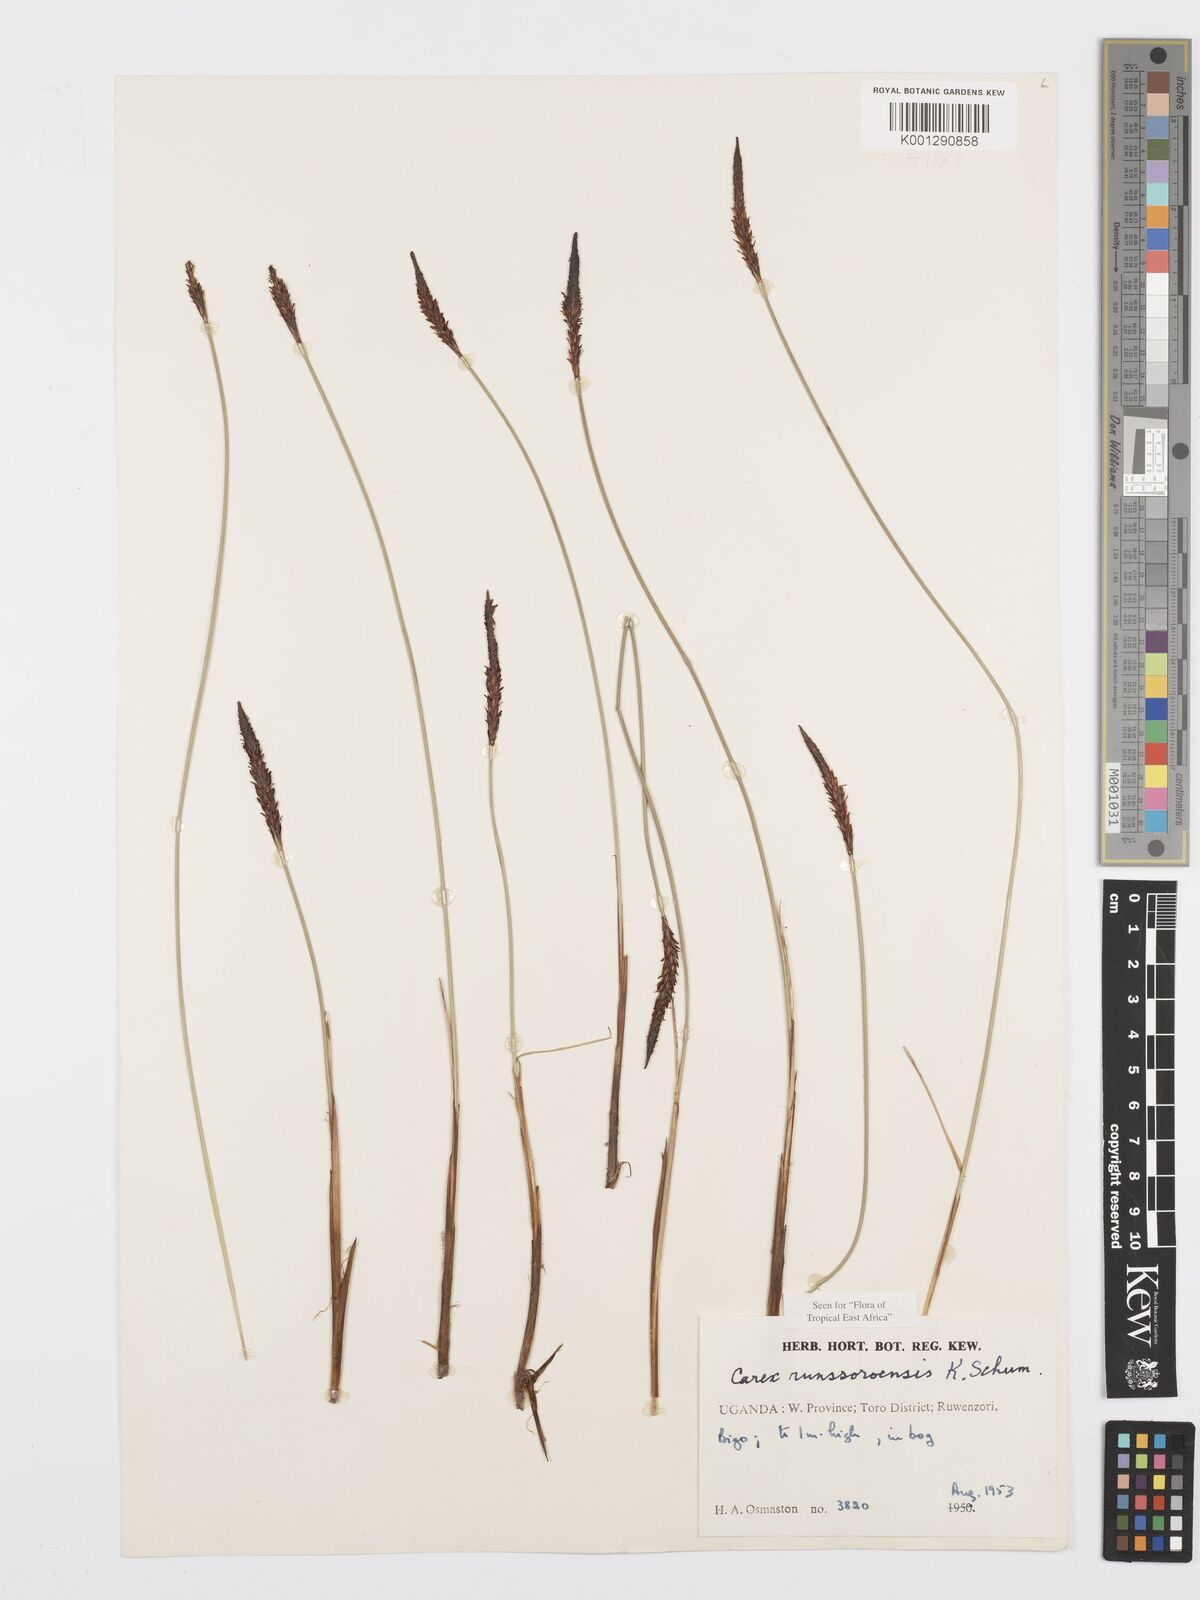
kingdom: Plantae
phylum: Tracheophyta
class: Liliopsida
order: Poales
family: Cyperaceae
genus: Carex
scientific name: Carex runssoroensis
